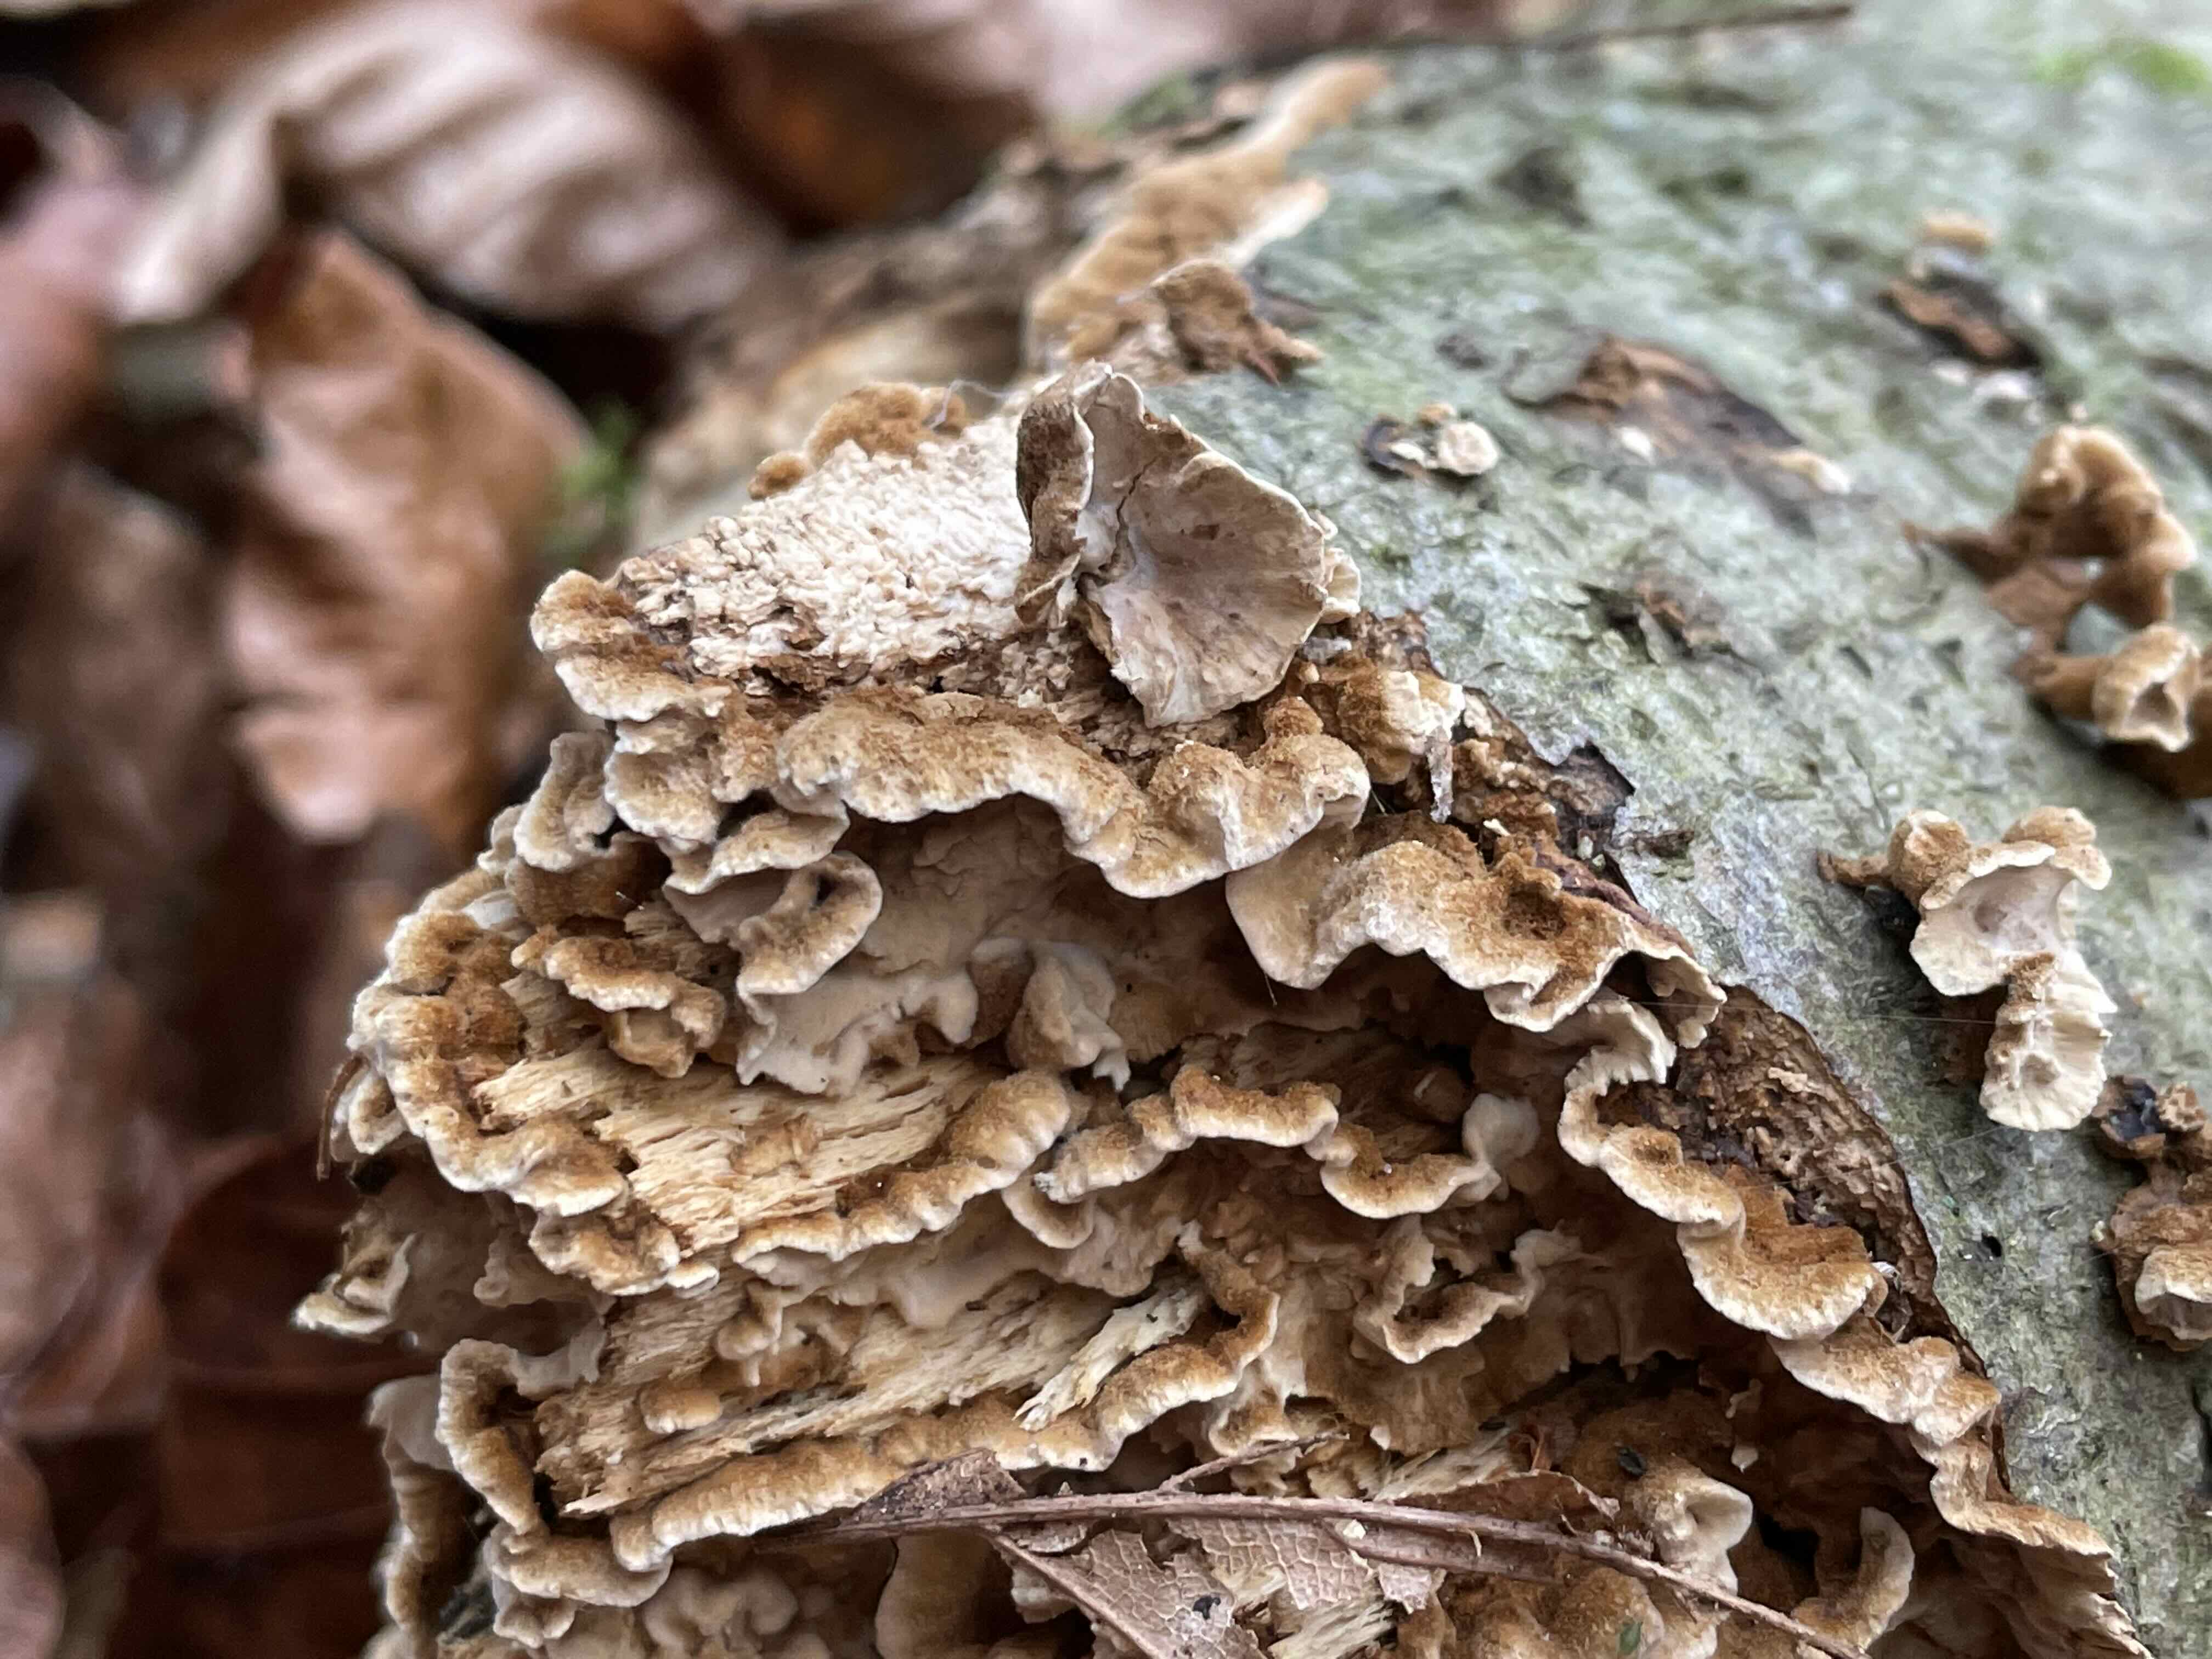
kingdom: Fungi
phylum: Basidiomycota
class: Agaricomycetes
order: Russulales
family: Hericiaceae
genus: Laxitextum
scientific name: Laxitextum bicolor
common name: tvefarvet filtskind
